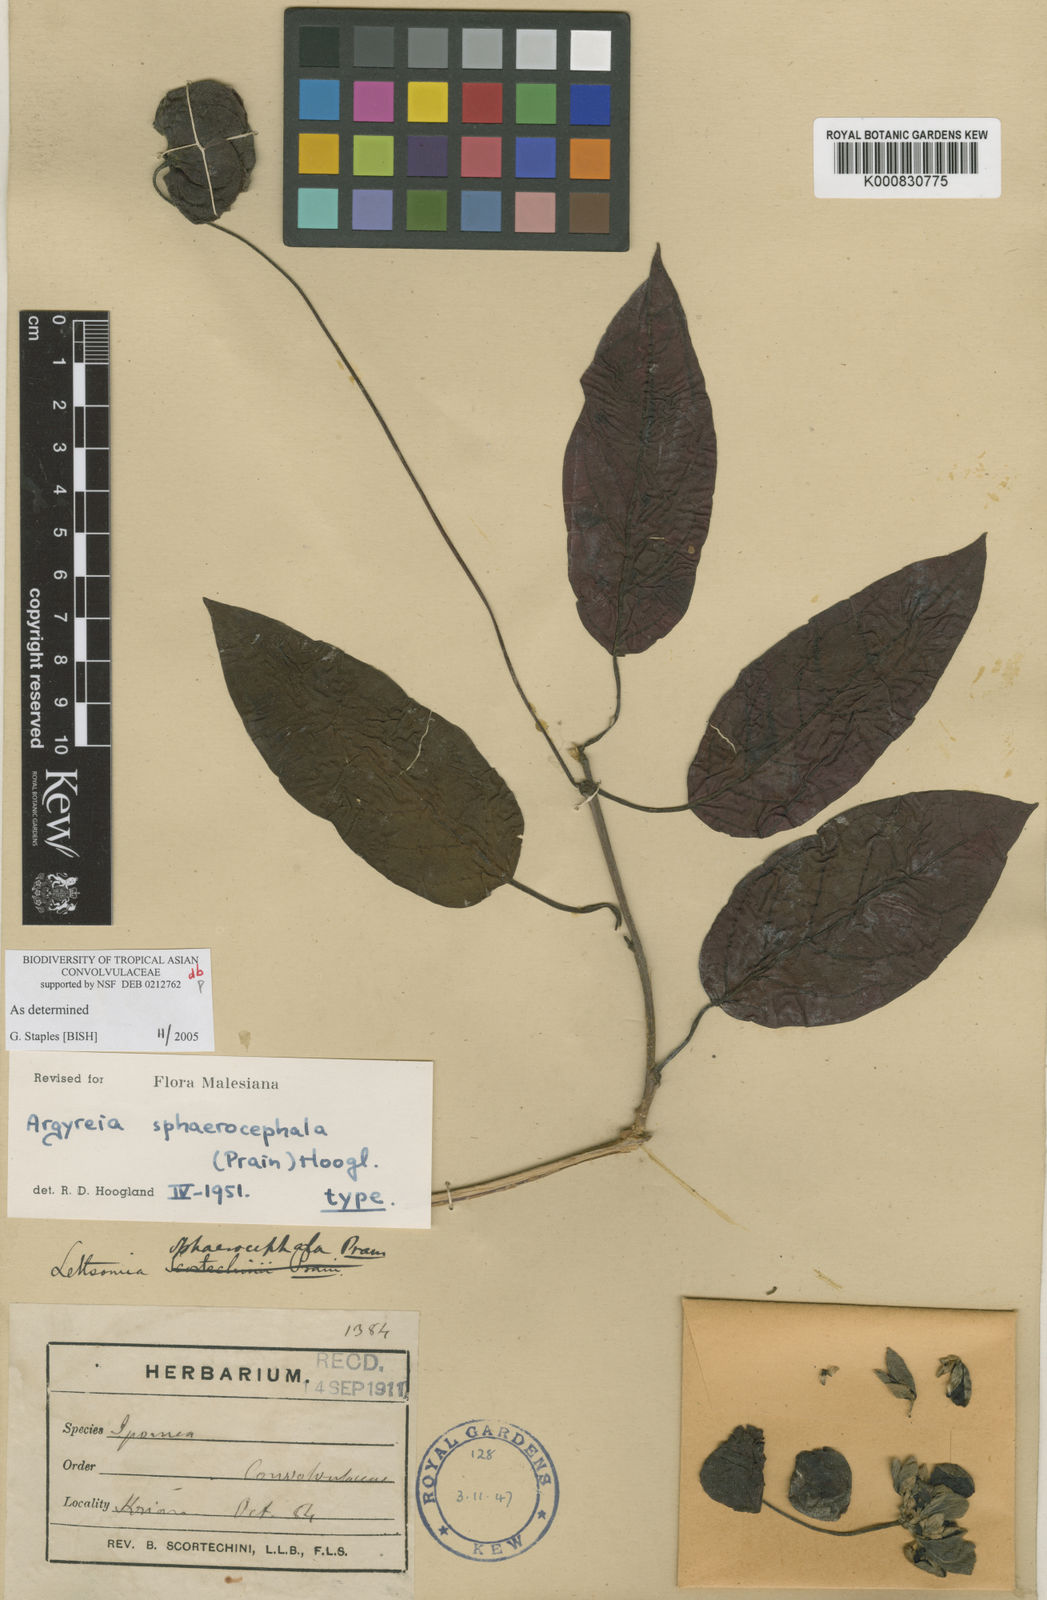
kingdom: Plantae
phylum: Tracheophyta
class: Magnoliopsida
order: Solanales
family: Convolvulaceae
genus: Argyreia
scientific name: Argyreia sphaerocephala
